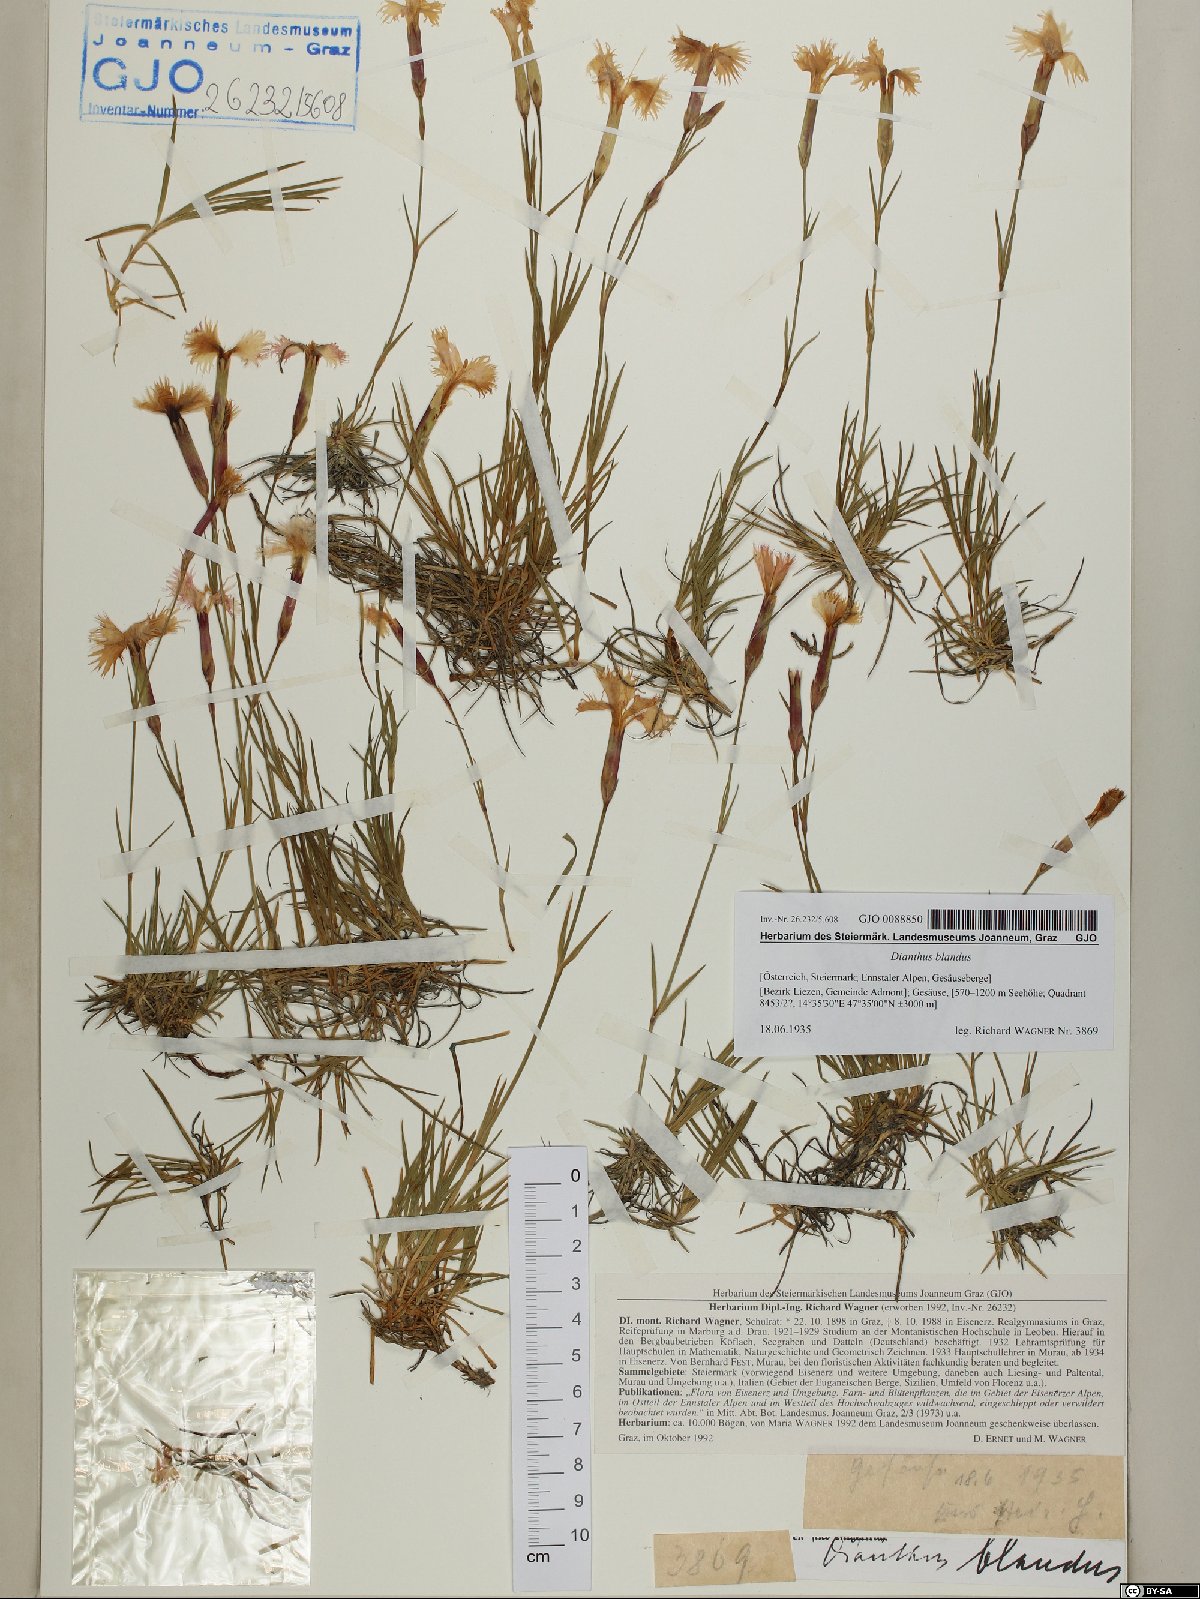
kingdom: Plantae
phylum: Tracheophyta
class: Magnoliopsida
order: Caryophyllales
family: Caryophyllaceae
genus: Dianthus
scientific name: Dianthus plumarius
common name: Pink
